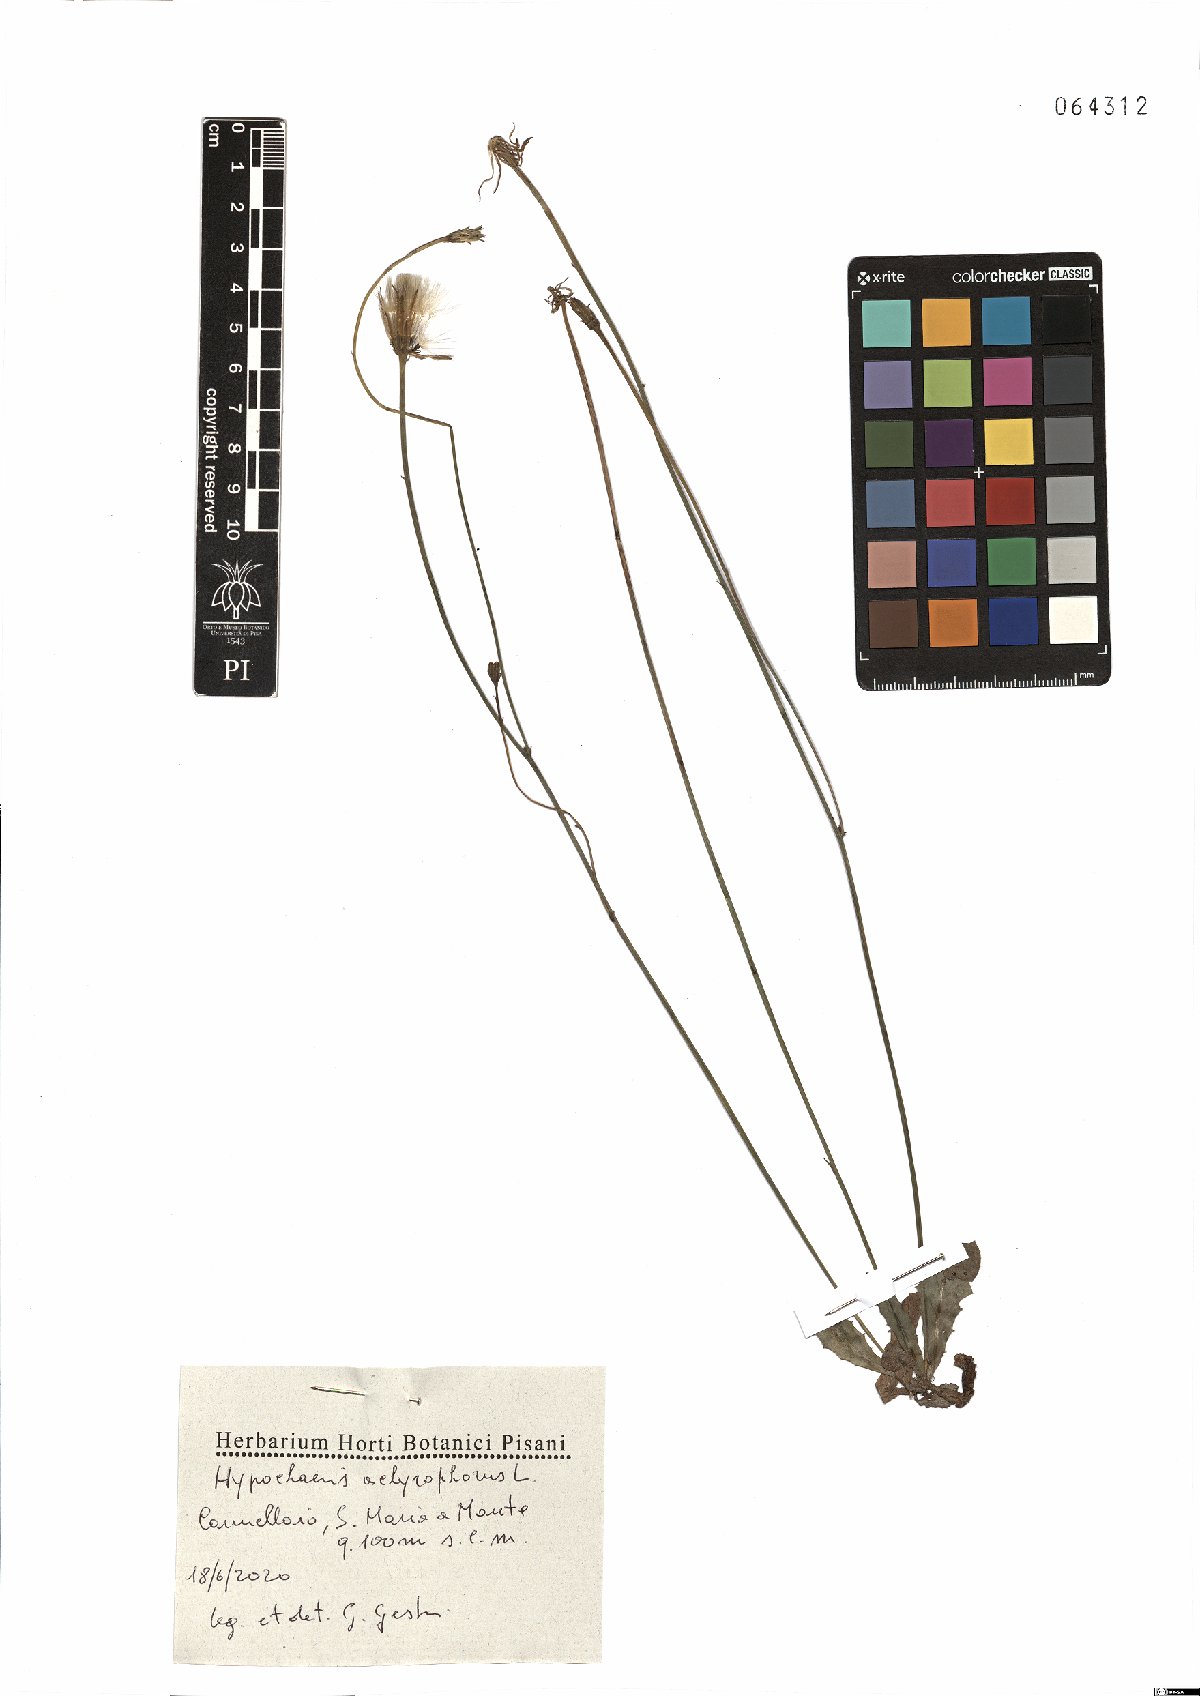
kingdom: Plantae
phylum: Tracheophyta
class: Magnoliopsida
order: Asterales
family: Asteraceae
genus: Achyrophorus
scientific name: Achyrophorus valdesii
